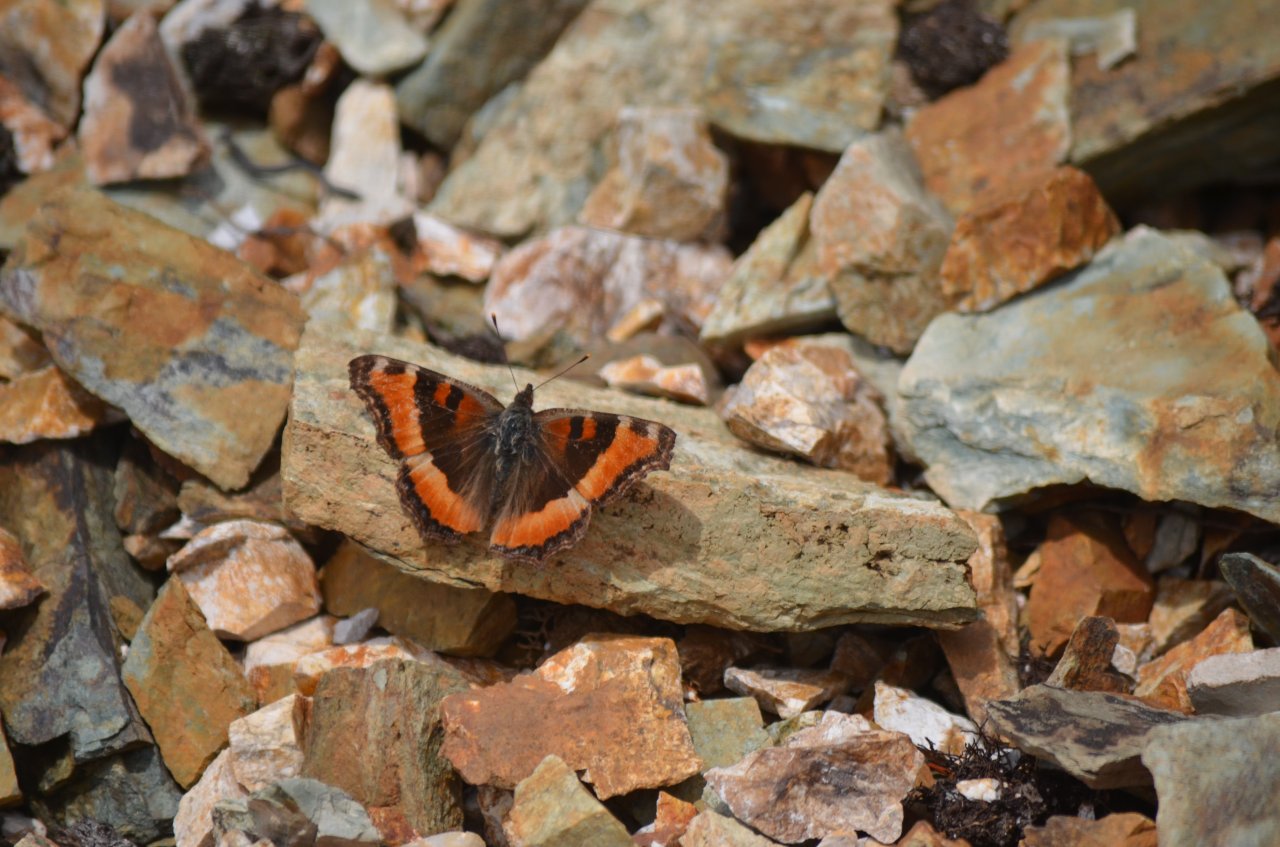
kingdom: Animalia
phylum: Arthropoda
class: Insecta
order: Lepidoptera
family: Nymphalidae
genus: Aglais
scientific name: Aglais milberti
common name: Milbert's Tortoiseshell
